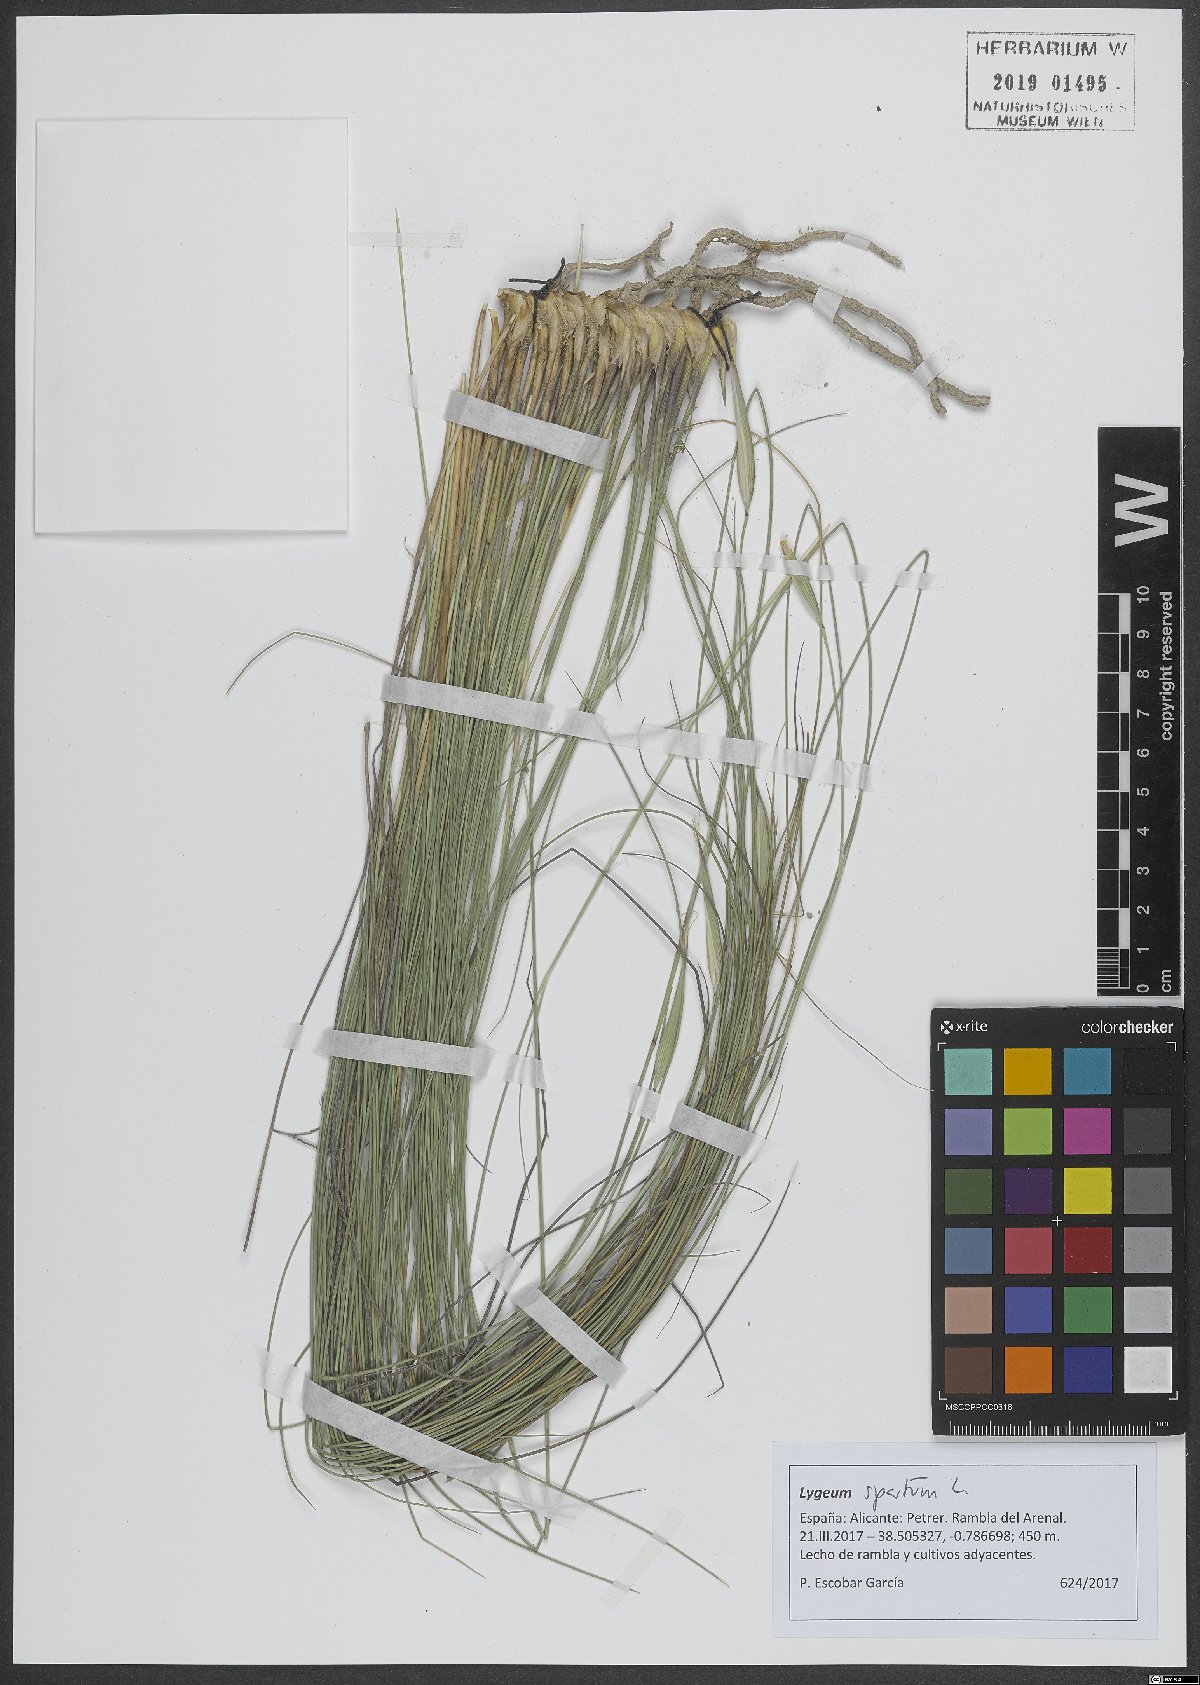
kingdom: Plantae
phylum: Tracheophyta
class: Liliopsida
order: Poales
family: Poaceae
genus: Lygeum
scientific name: Lygeum spartum
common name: Albardine
